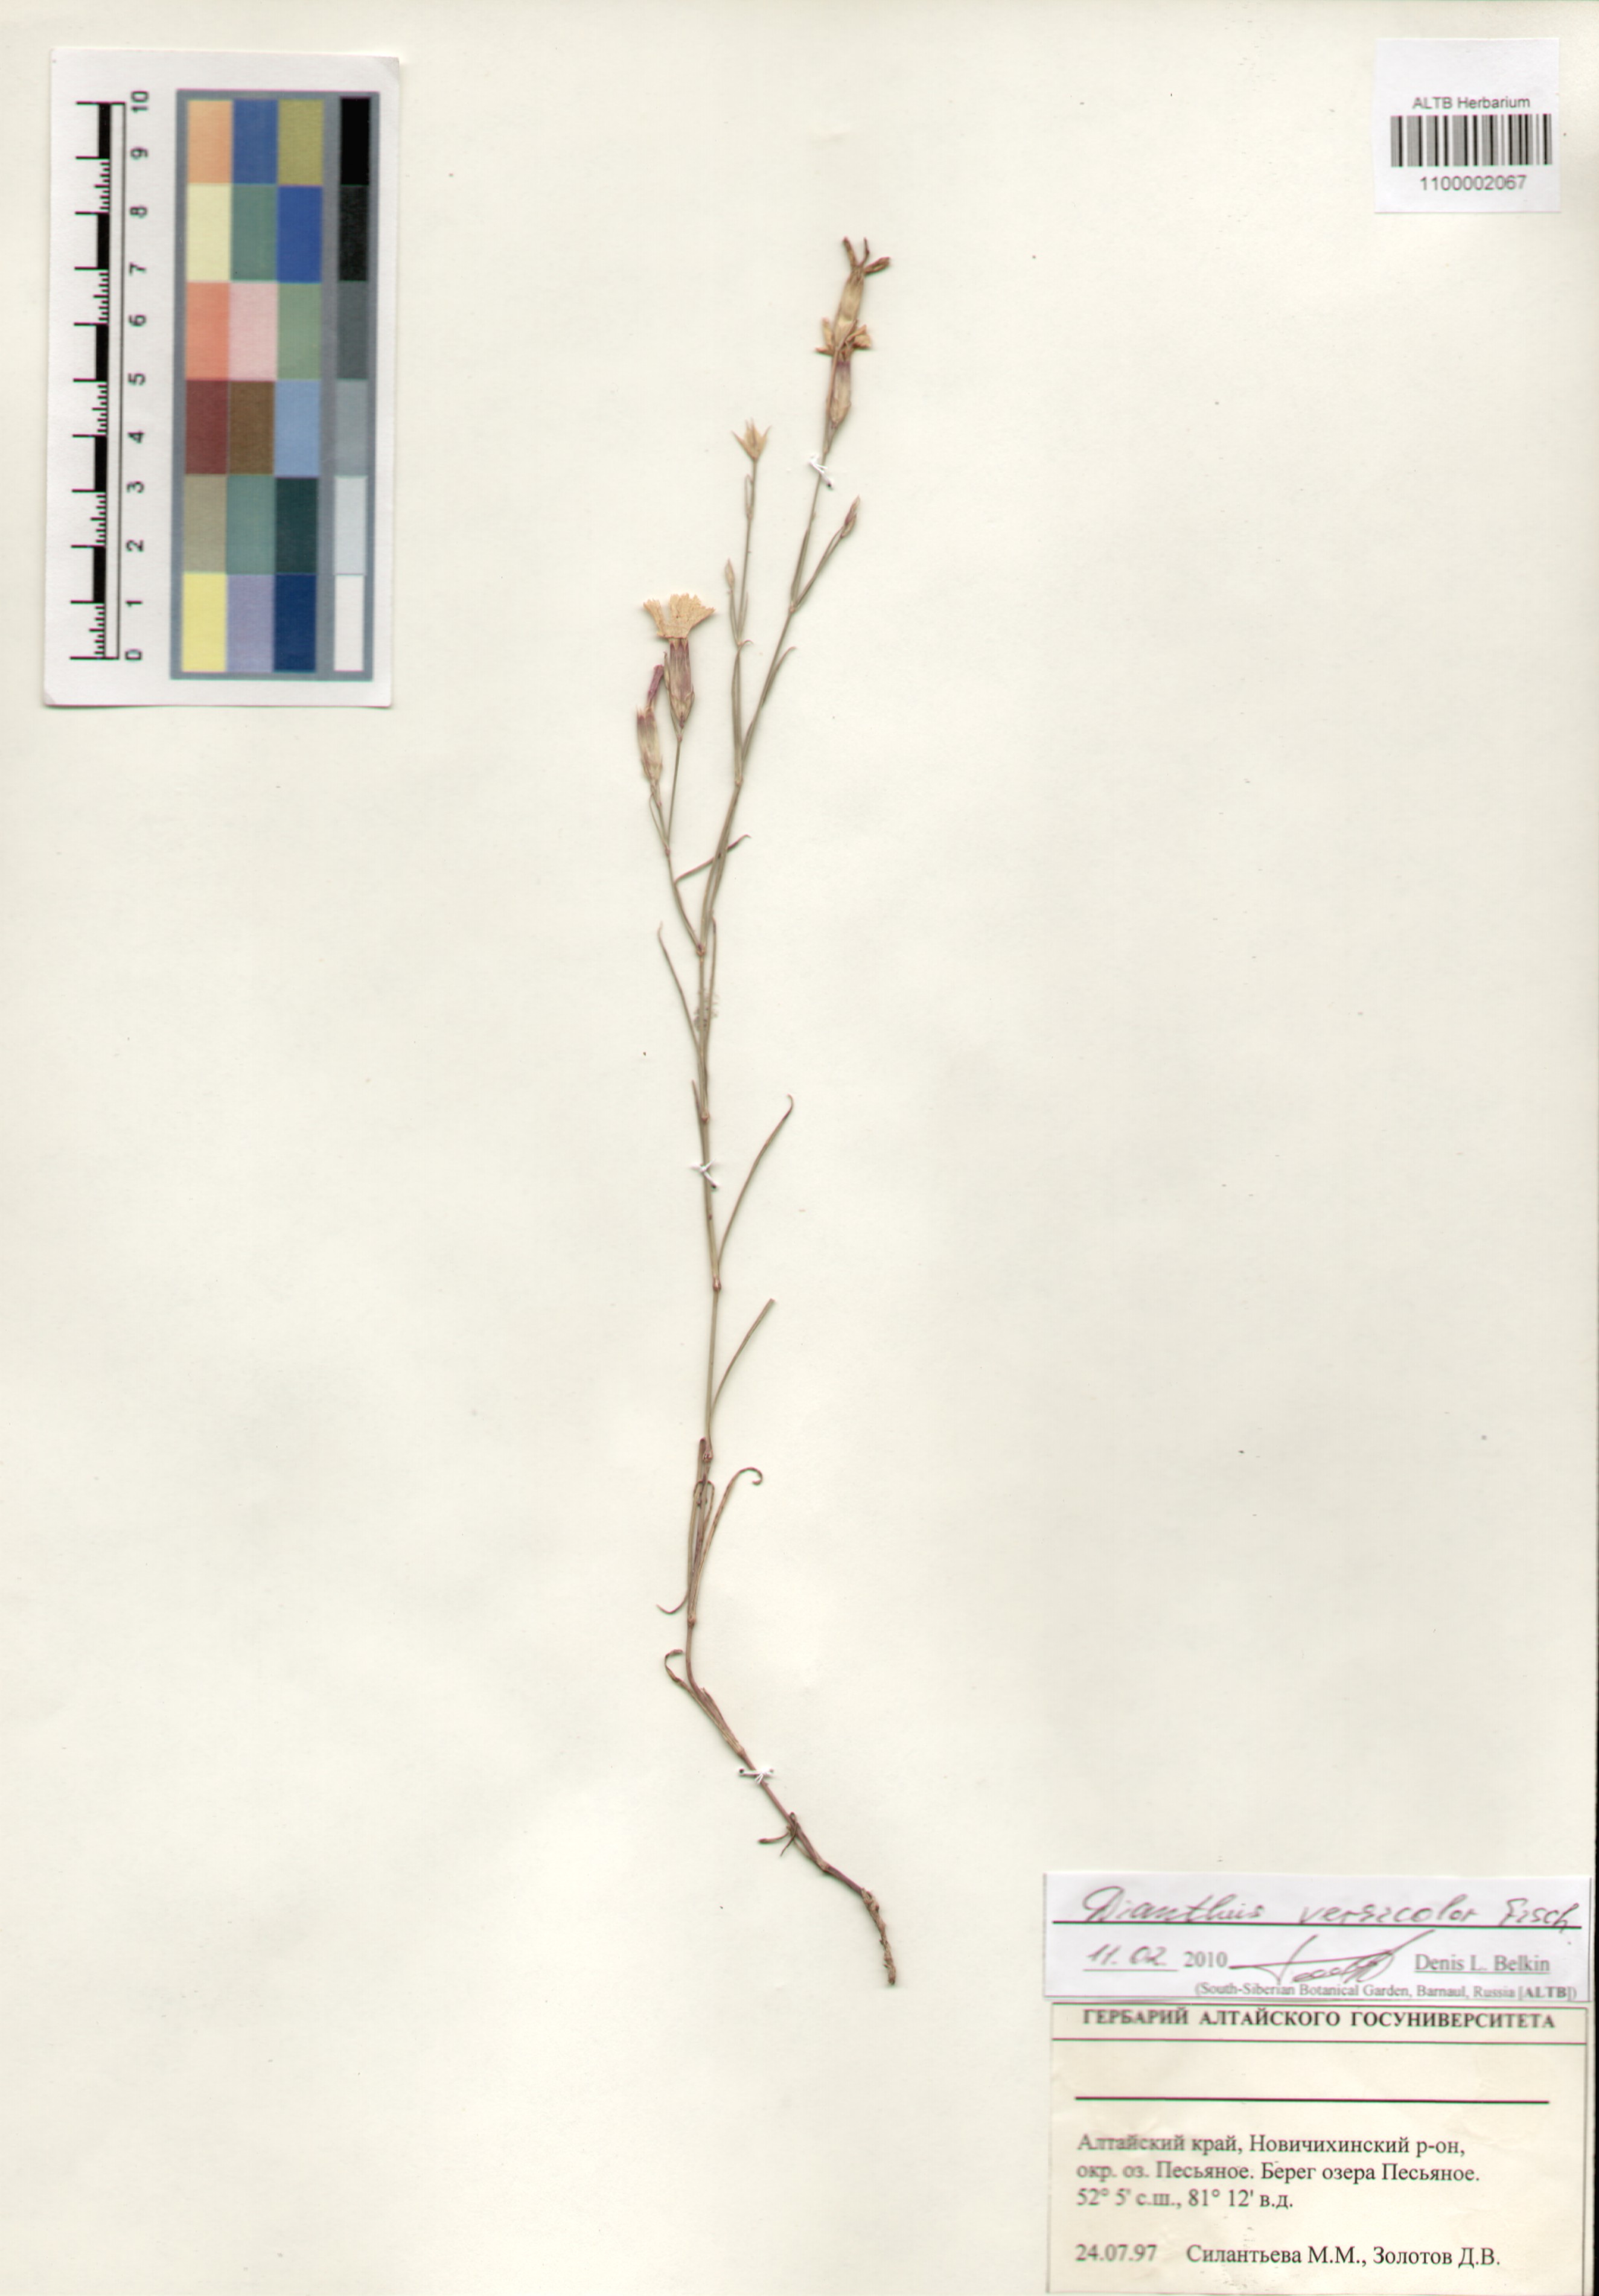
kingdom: Plantae
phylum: Tracheophyta
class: Magnoliopsida
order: Caryophyllales
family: Caryophyllaceae
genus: Dianthus
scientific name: Dianthus chinensis
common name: Rainbow pink
